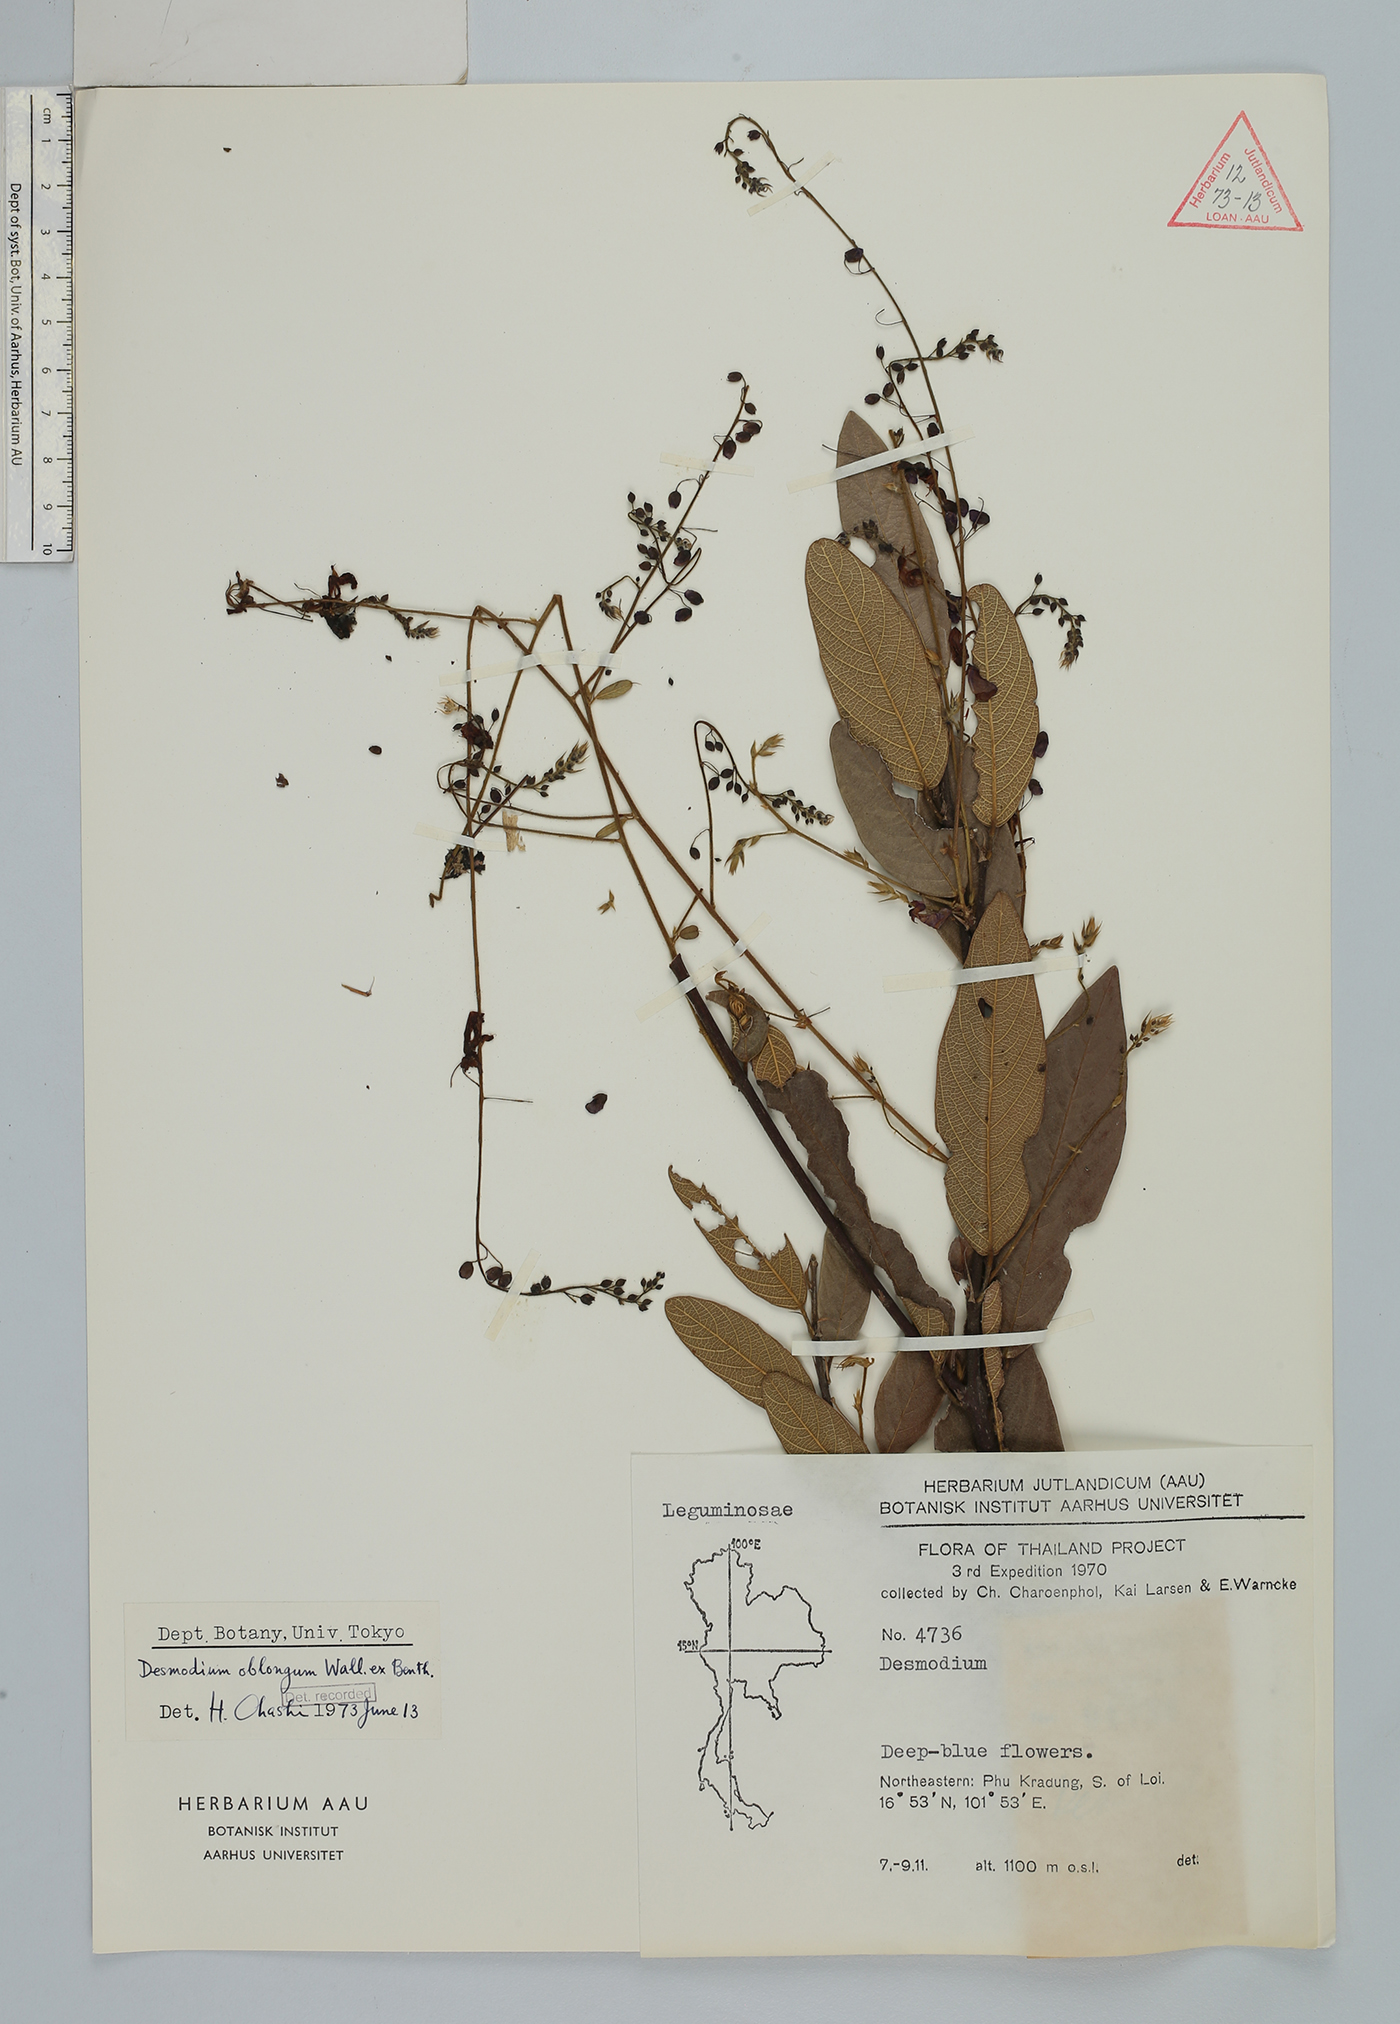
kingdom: Plantae
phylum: Tracheophyta
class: Magnoliopsida
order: Fabales
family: Fabaceae
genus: Uraria
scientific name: Uraria oblonga
